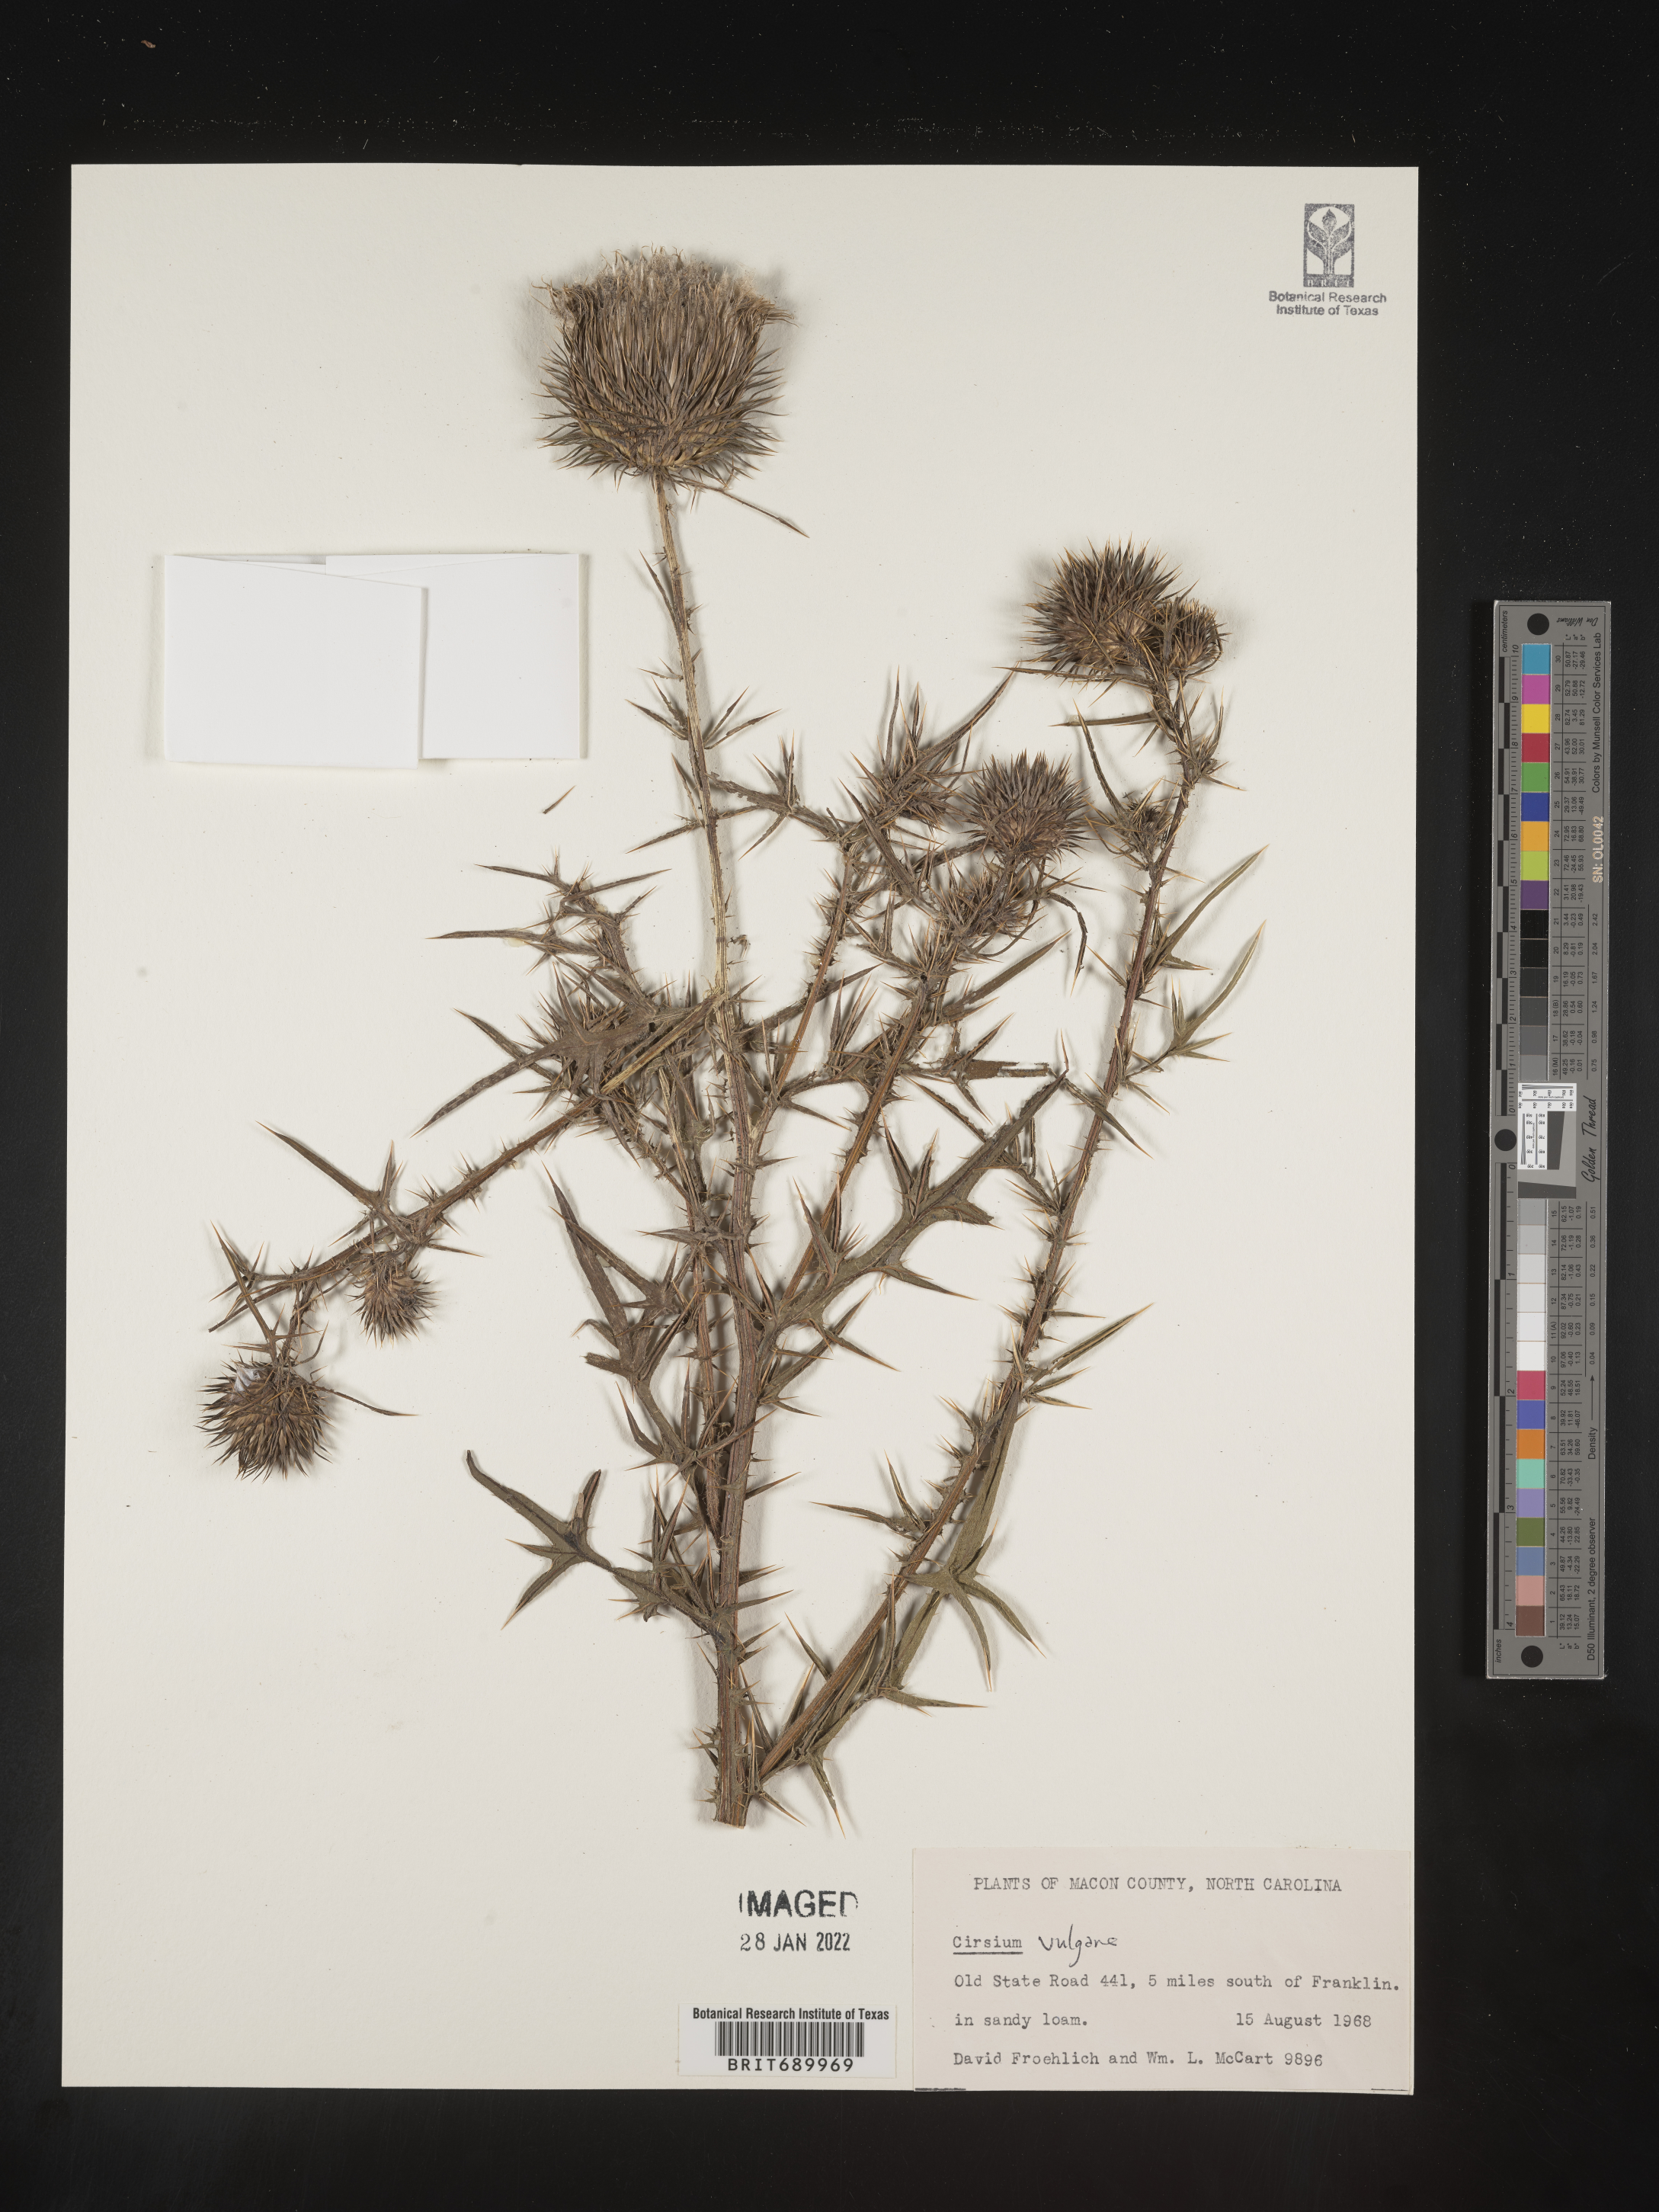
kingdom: Plantae
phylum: Tracheophyta
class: Magnoliopsida
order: Asterales
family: Asteraceae
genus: Cirsium
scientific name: Cirsium vulgare
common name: Bull thistle
